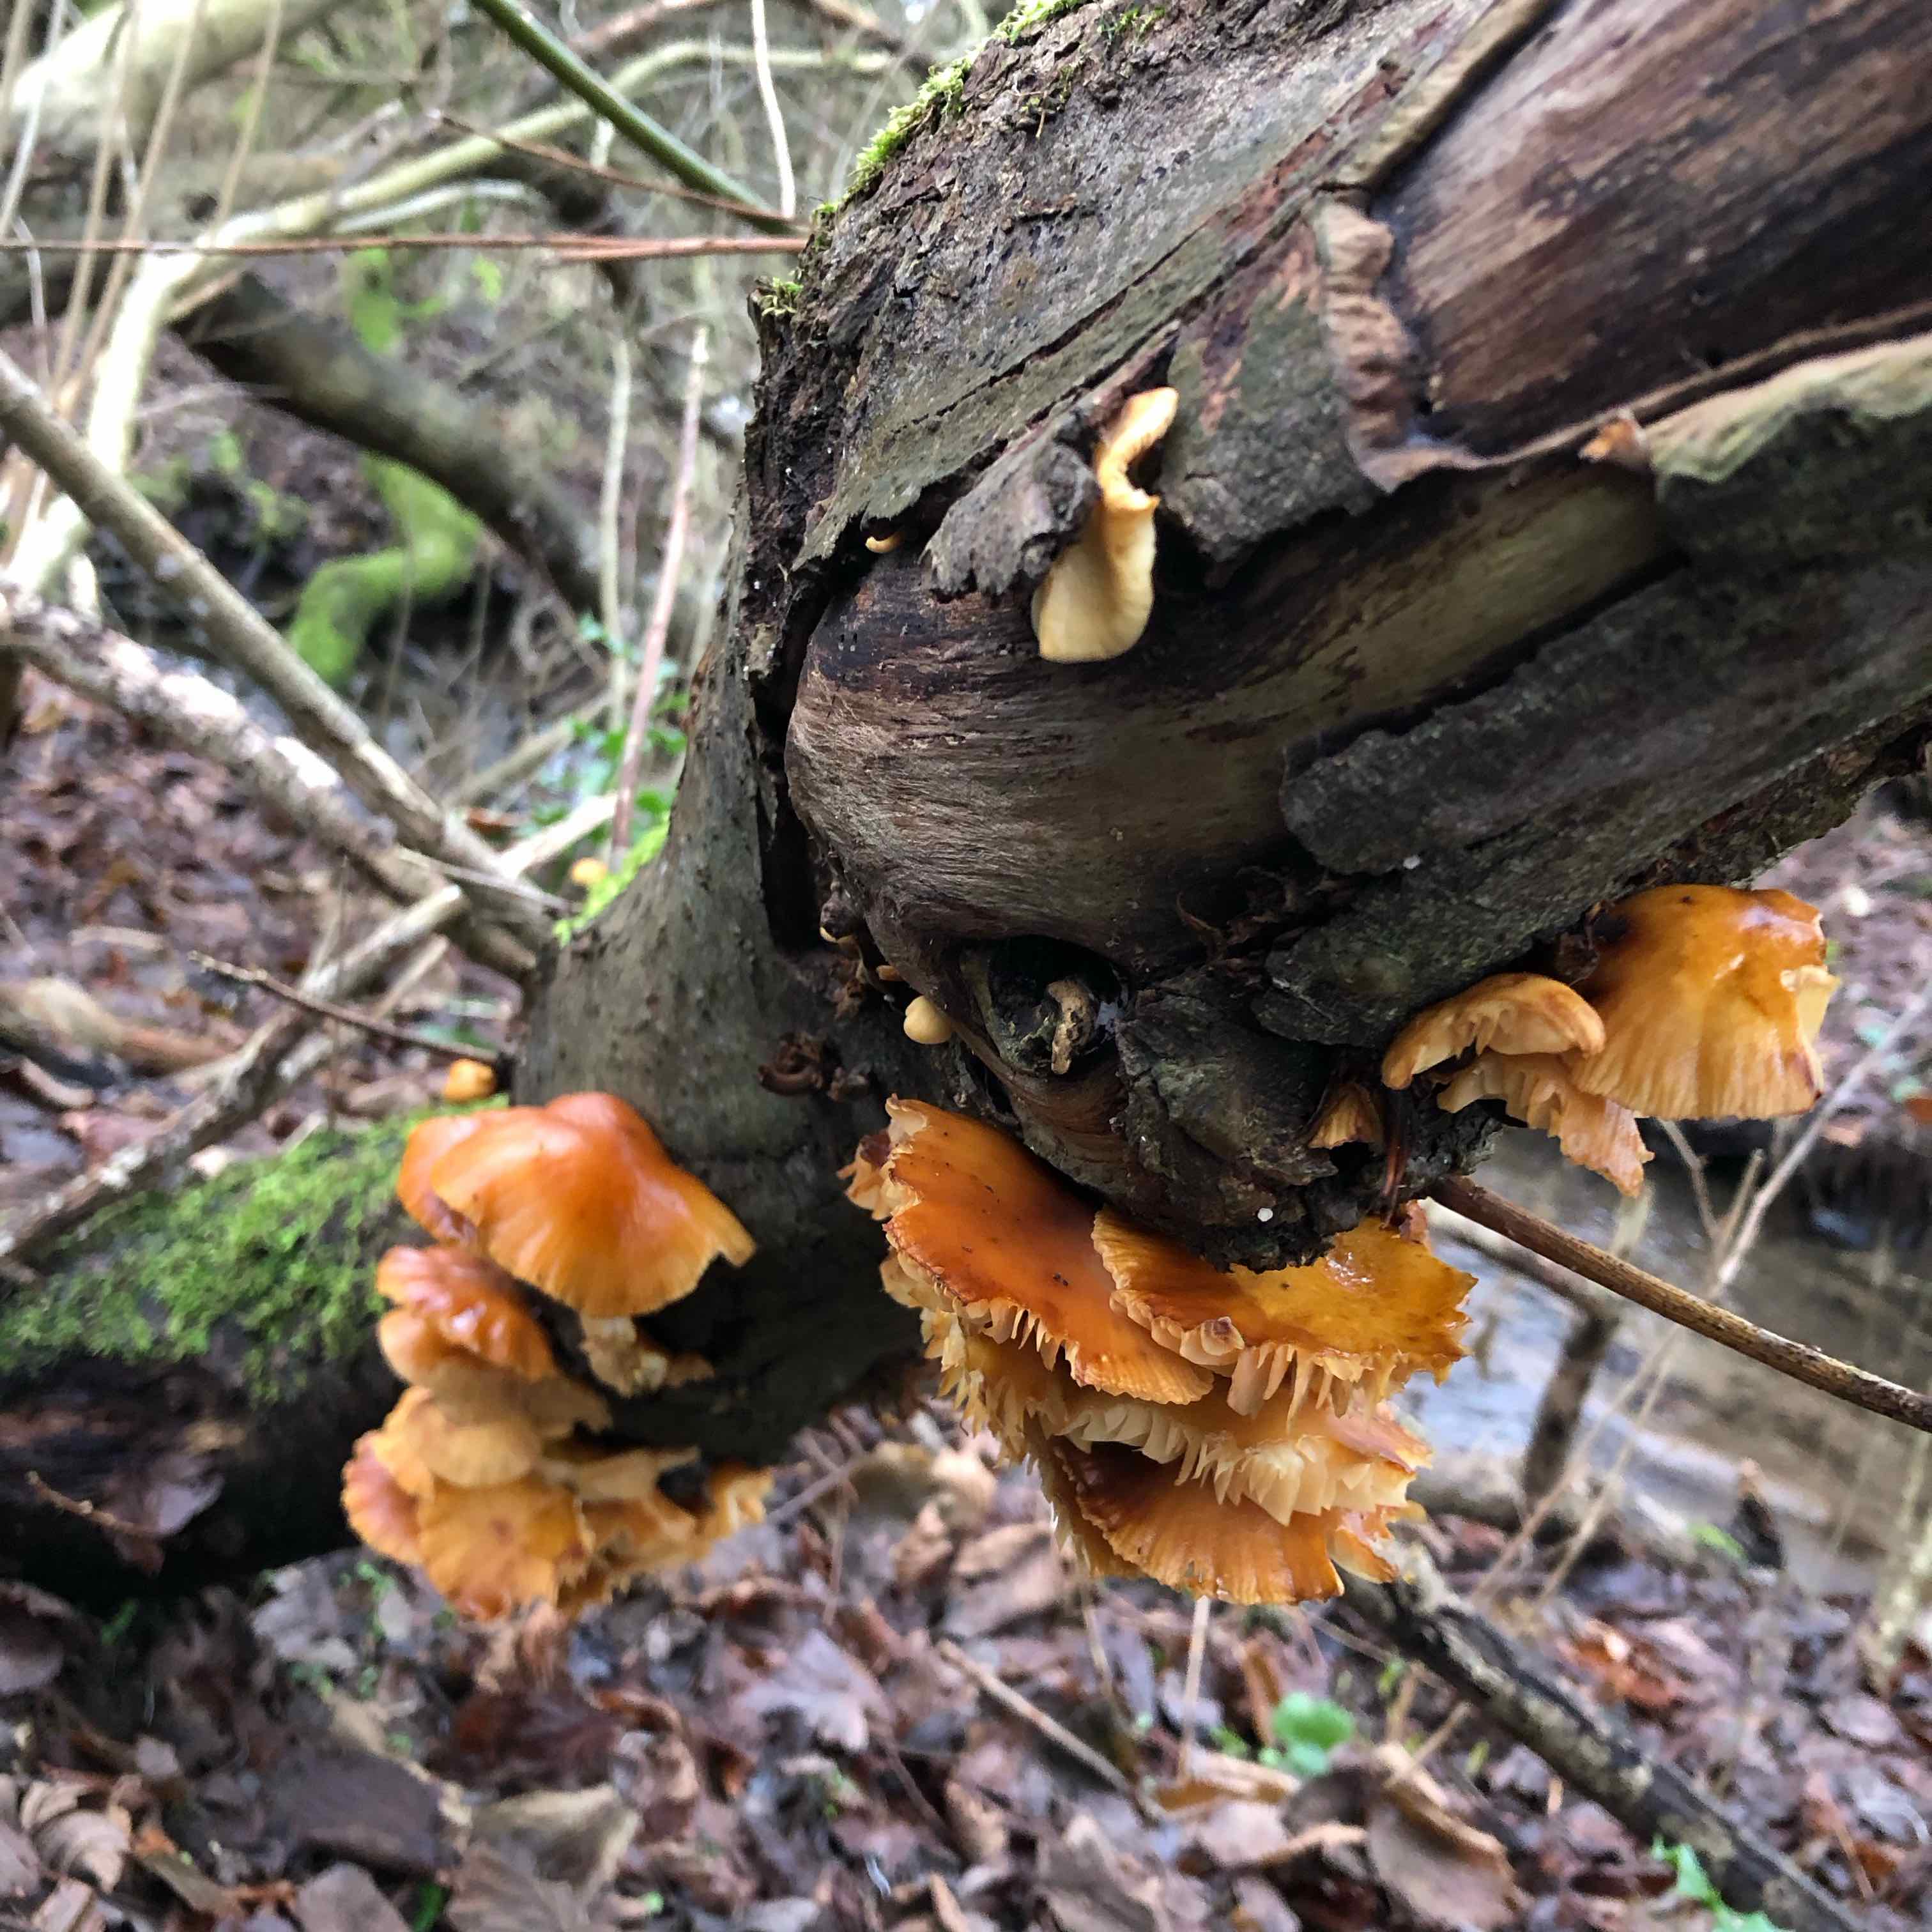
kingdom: Fungi
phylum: Basidiomycota
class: Agaricomycetes
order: Agaricales
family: Physalacriaceae
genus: Flammulina
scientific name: Flammulina
